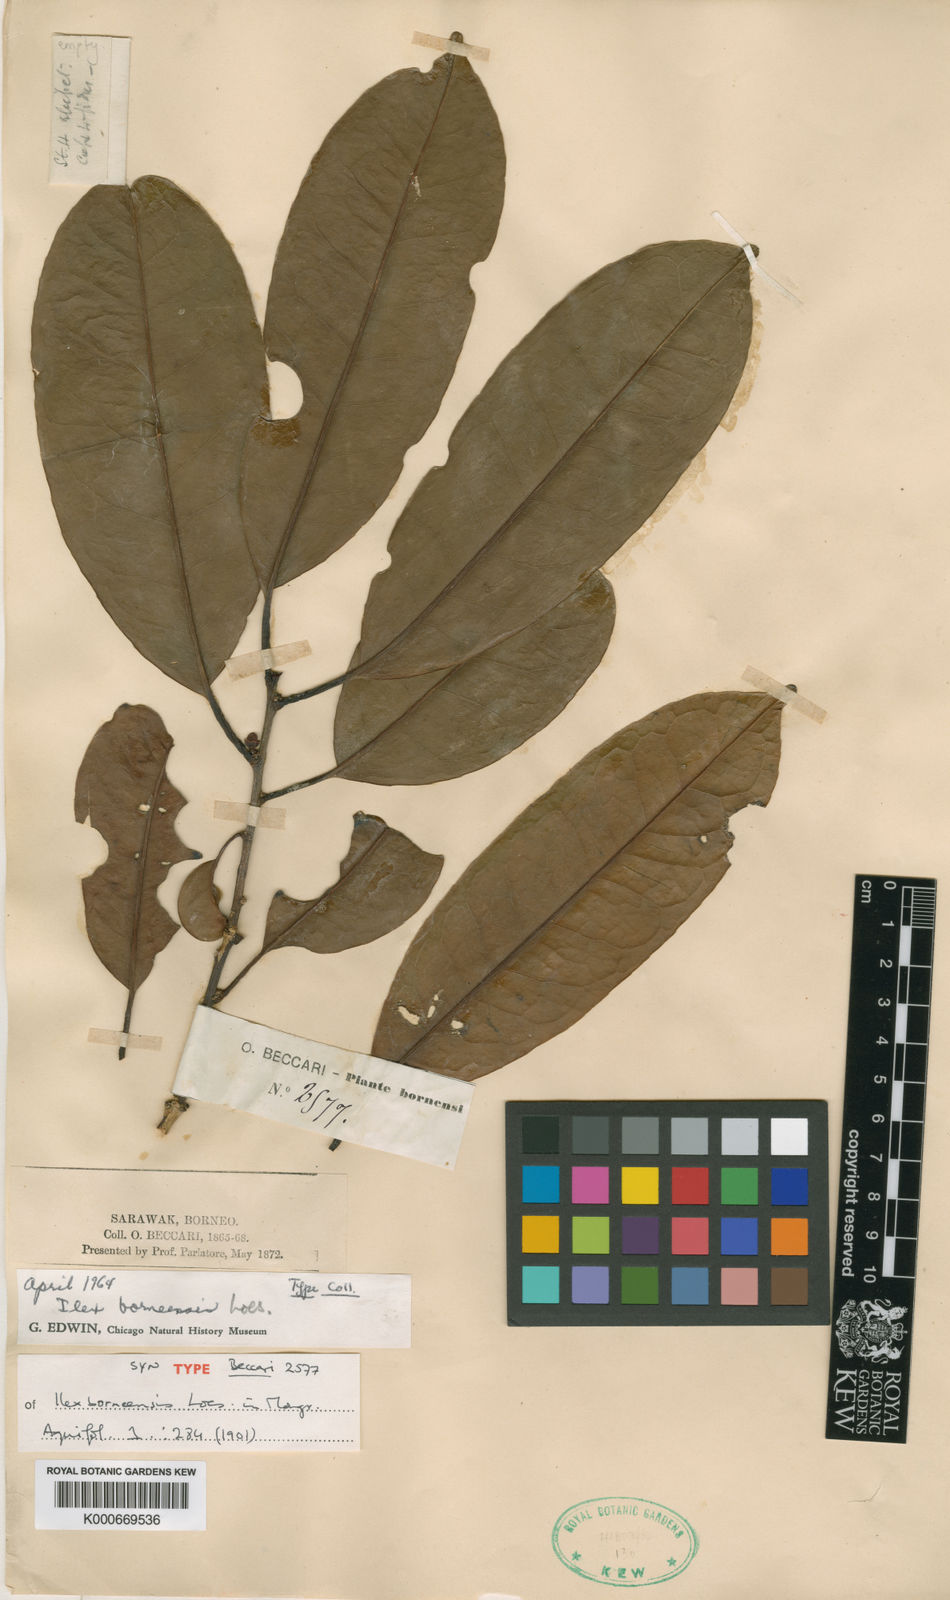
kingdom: Plantae
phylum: Tracheophyta
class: Magnoliopsida
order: Aquifoliales
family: Aquifoliaceae
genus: Ilex
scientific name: Ilex borneensis
